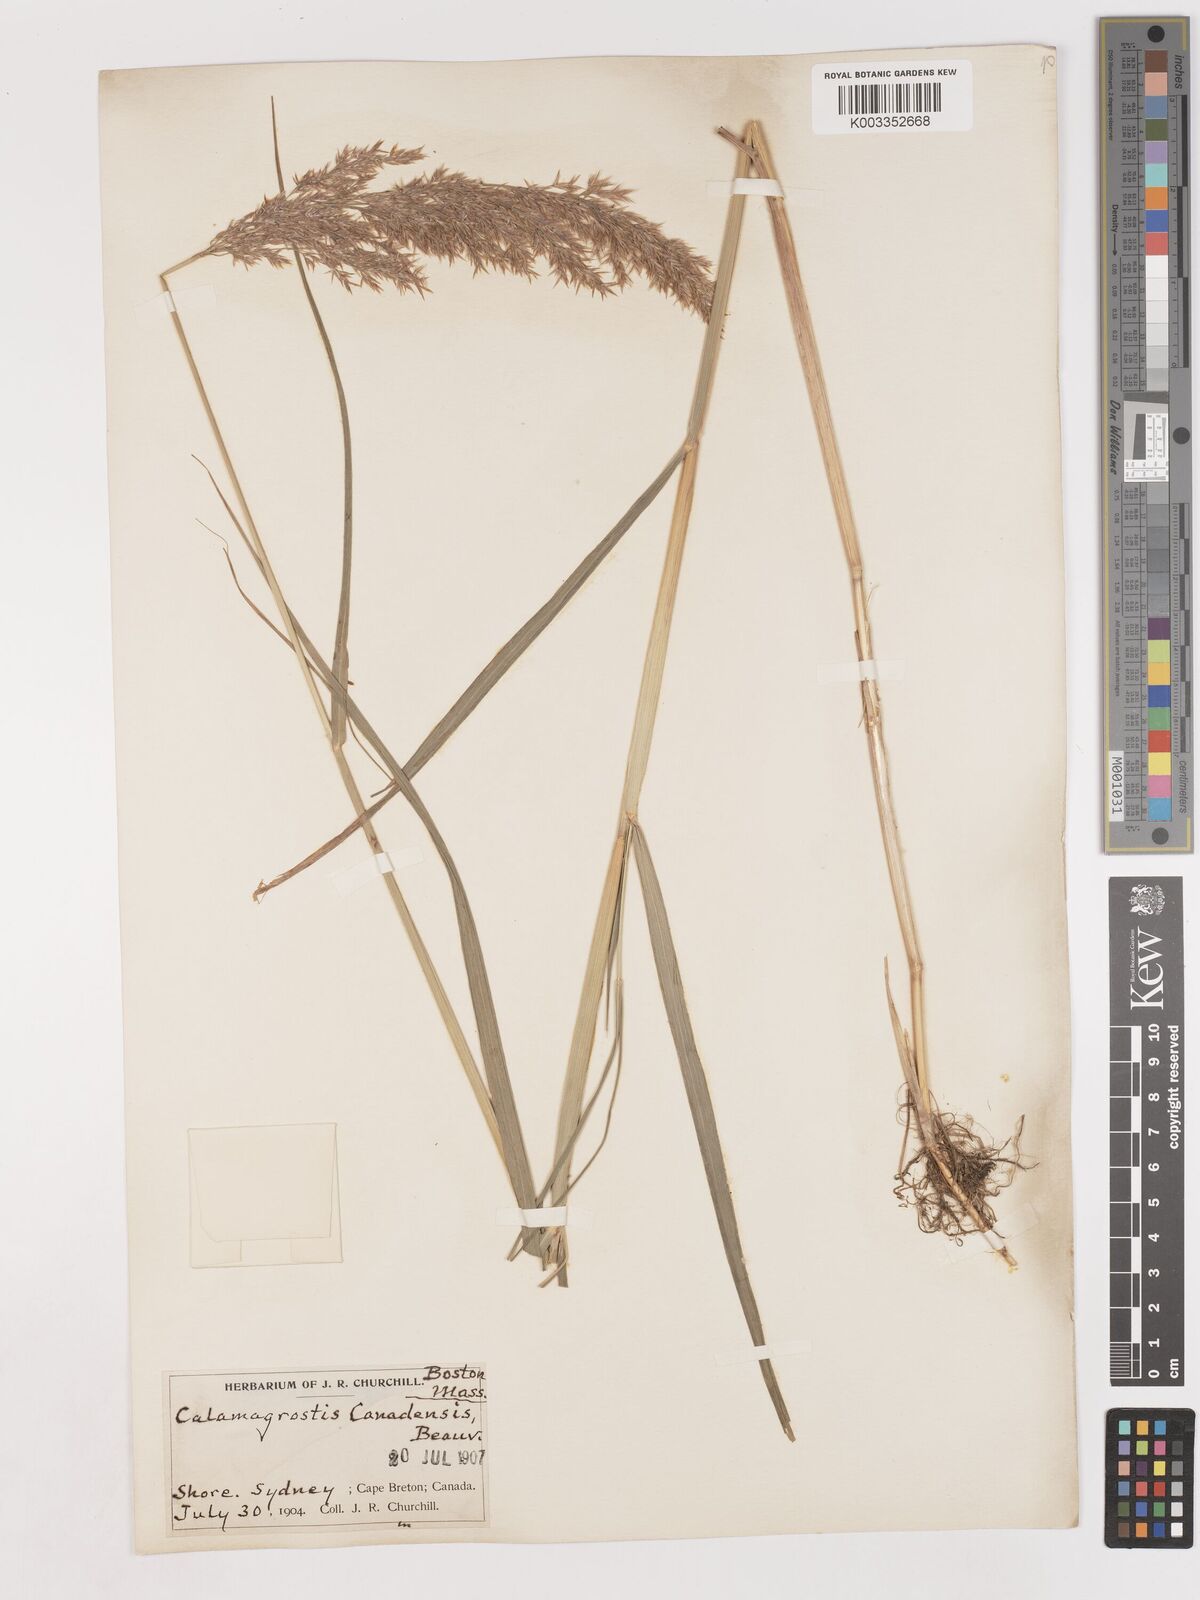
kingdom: Plantae
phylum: Tracheophyta
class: Liliopsida
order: Poales
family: Poaceae
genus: Calamagrostis
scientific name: Calamagrostis canadensis
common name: Canada bluejoint
